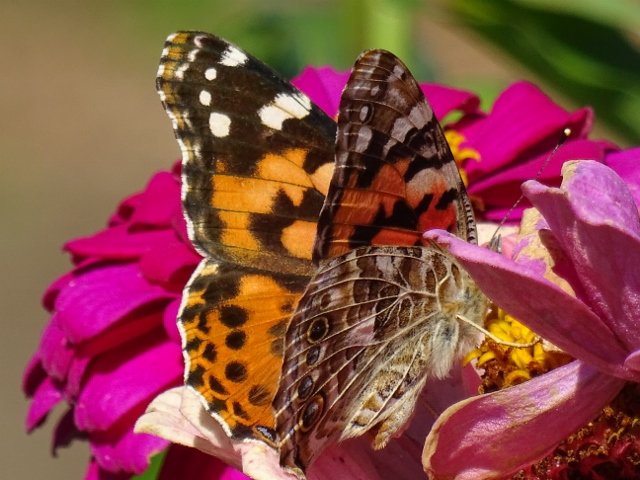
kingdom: Animalia
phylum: Arthropoda
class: Insecta
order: Lepidoptera
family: Nymphalidae
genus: Vanessa
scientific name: Vanessa cardui
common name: Painted Lady
